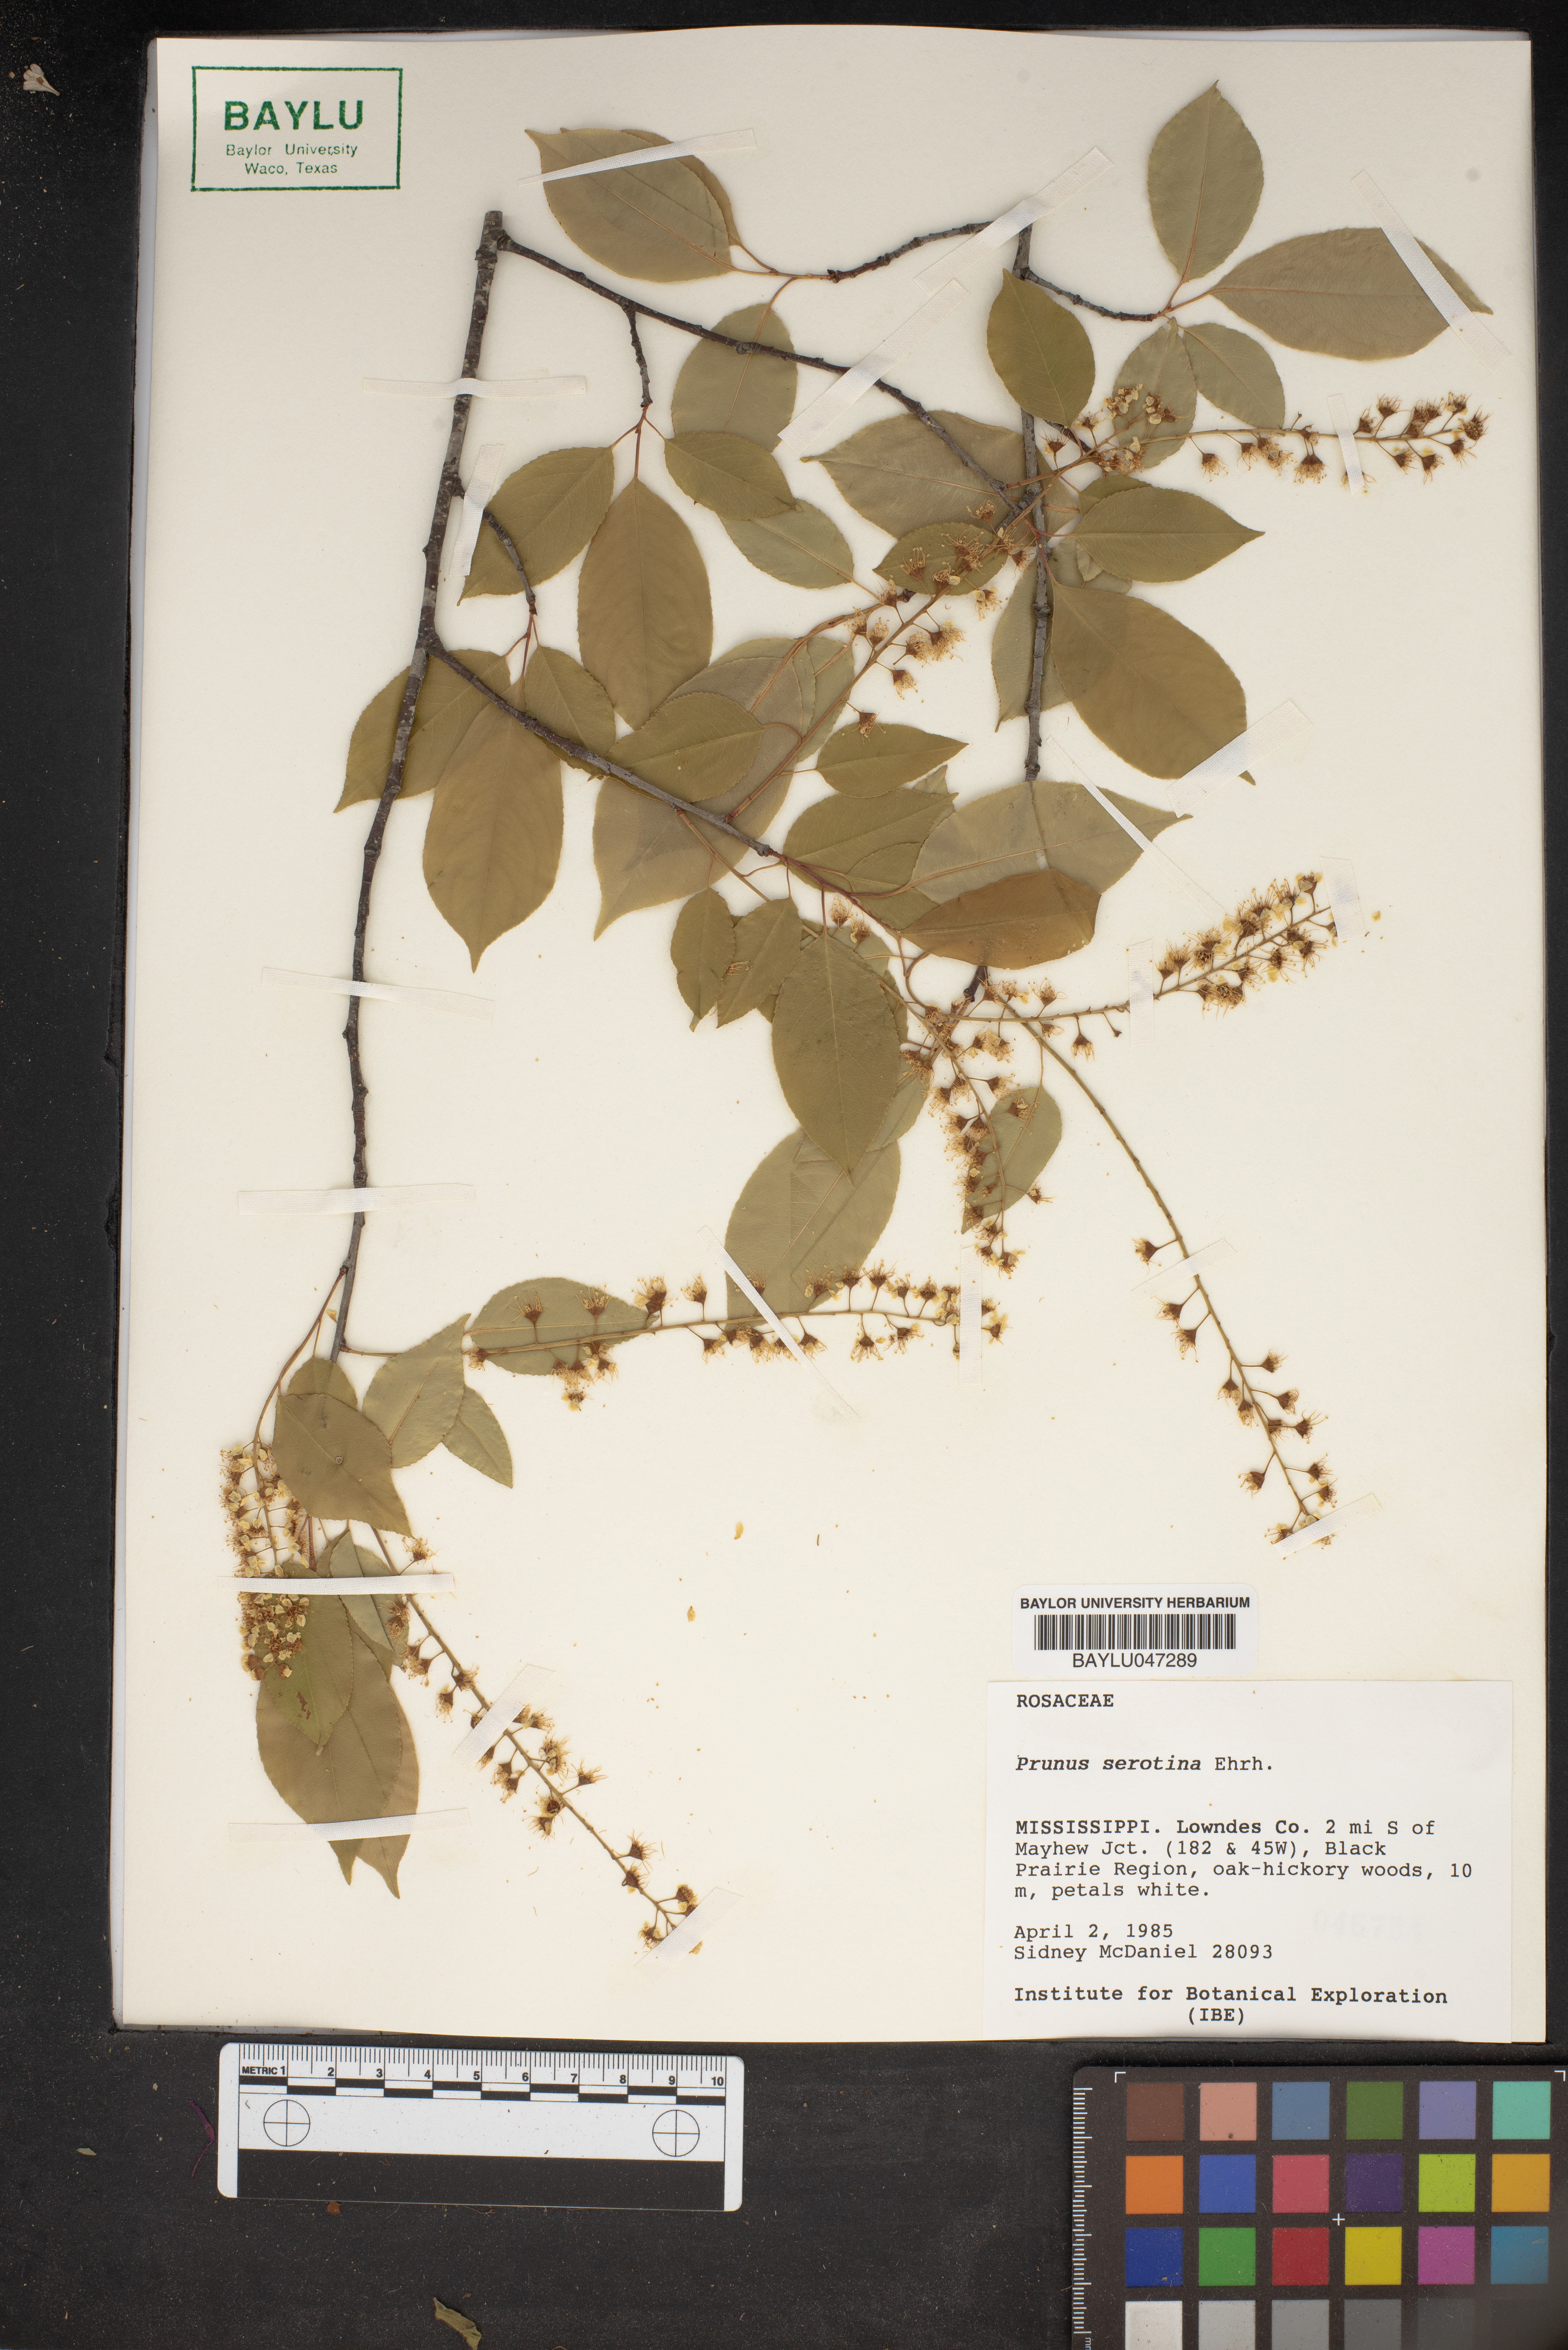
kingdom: Plantae
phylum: Tracheophyta
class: Magnoliopsida
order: Rosales
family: Rosaceae
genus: Prunus
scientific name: Prunus serotina
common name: Black cherry
